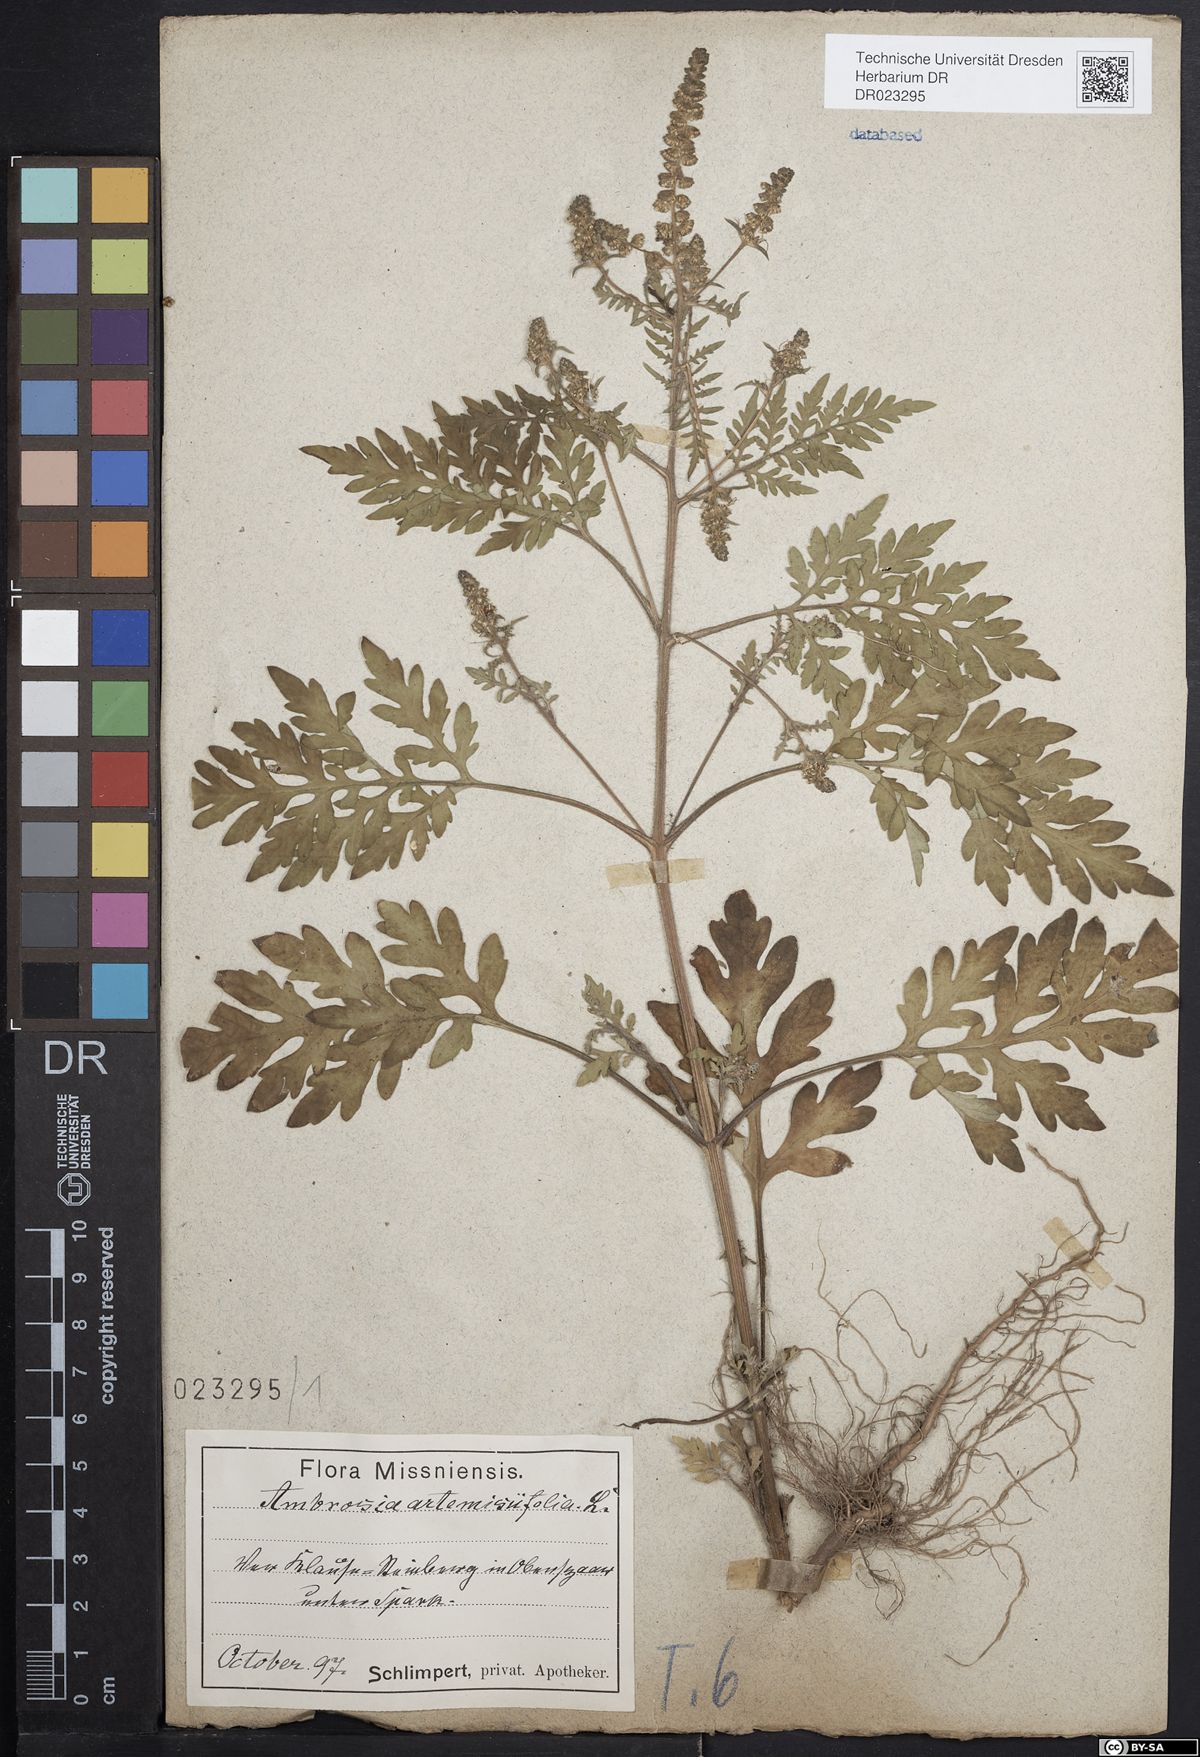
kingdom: Plantae
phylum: Tracheophyta
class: Magnoliopsida
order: Asterales
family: Asteraceae
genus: Ambrosia
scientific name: Ambrosia artemisiifolia
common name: Annual ragweed
